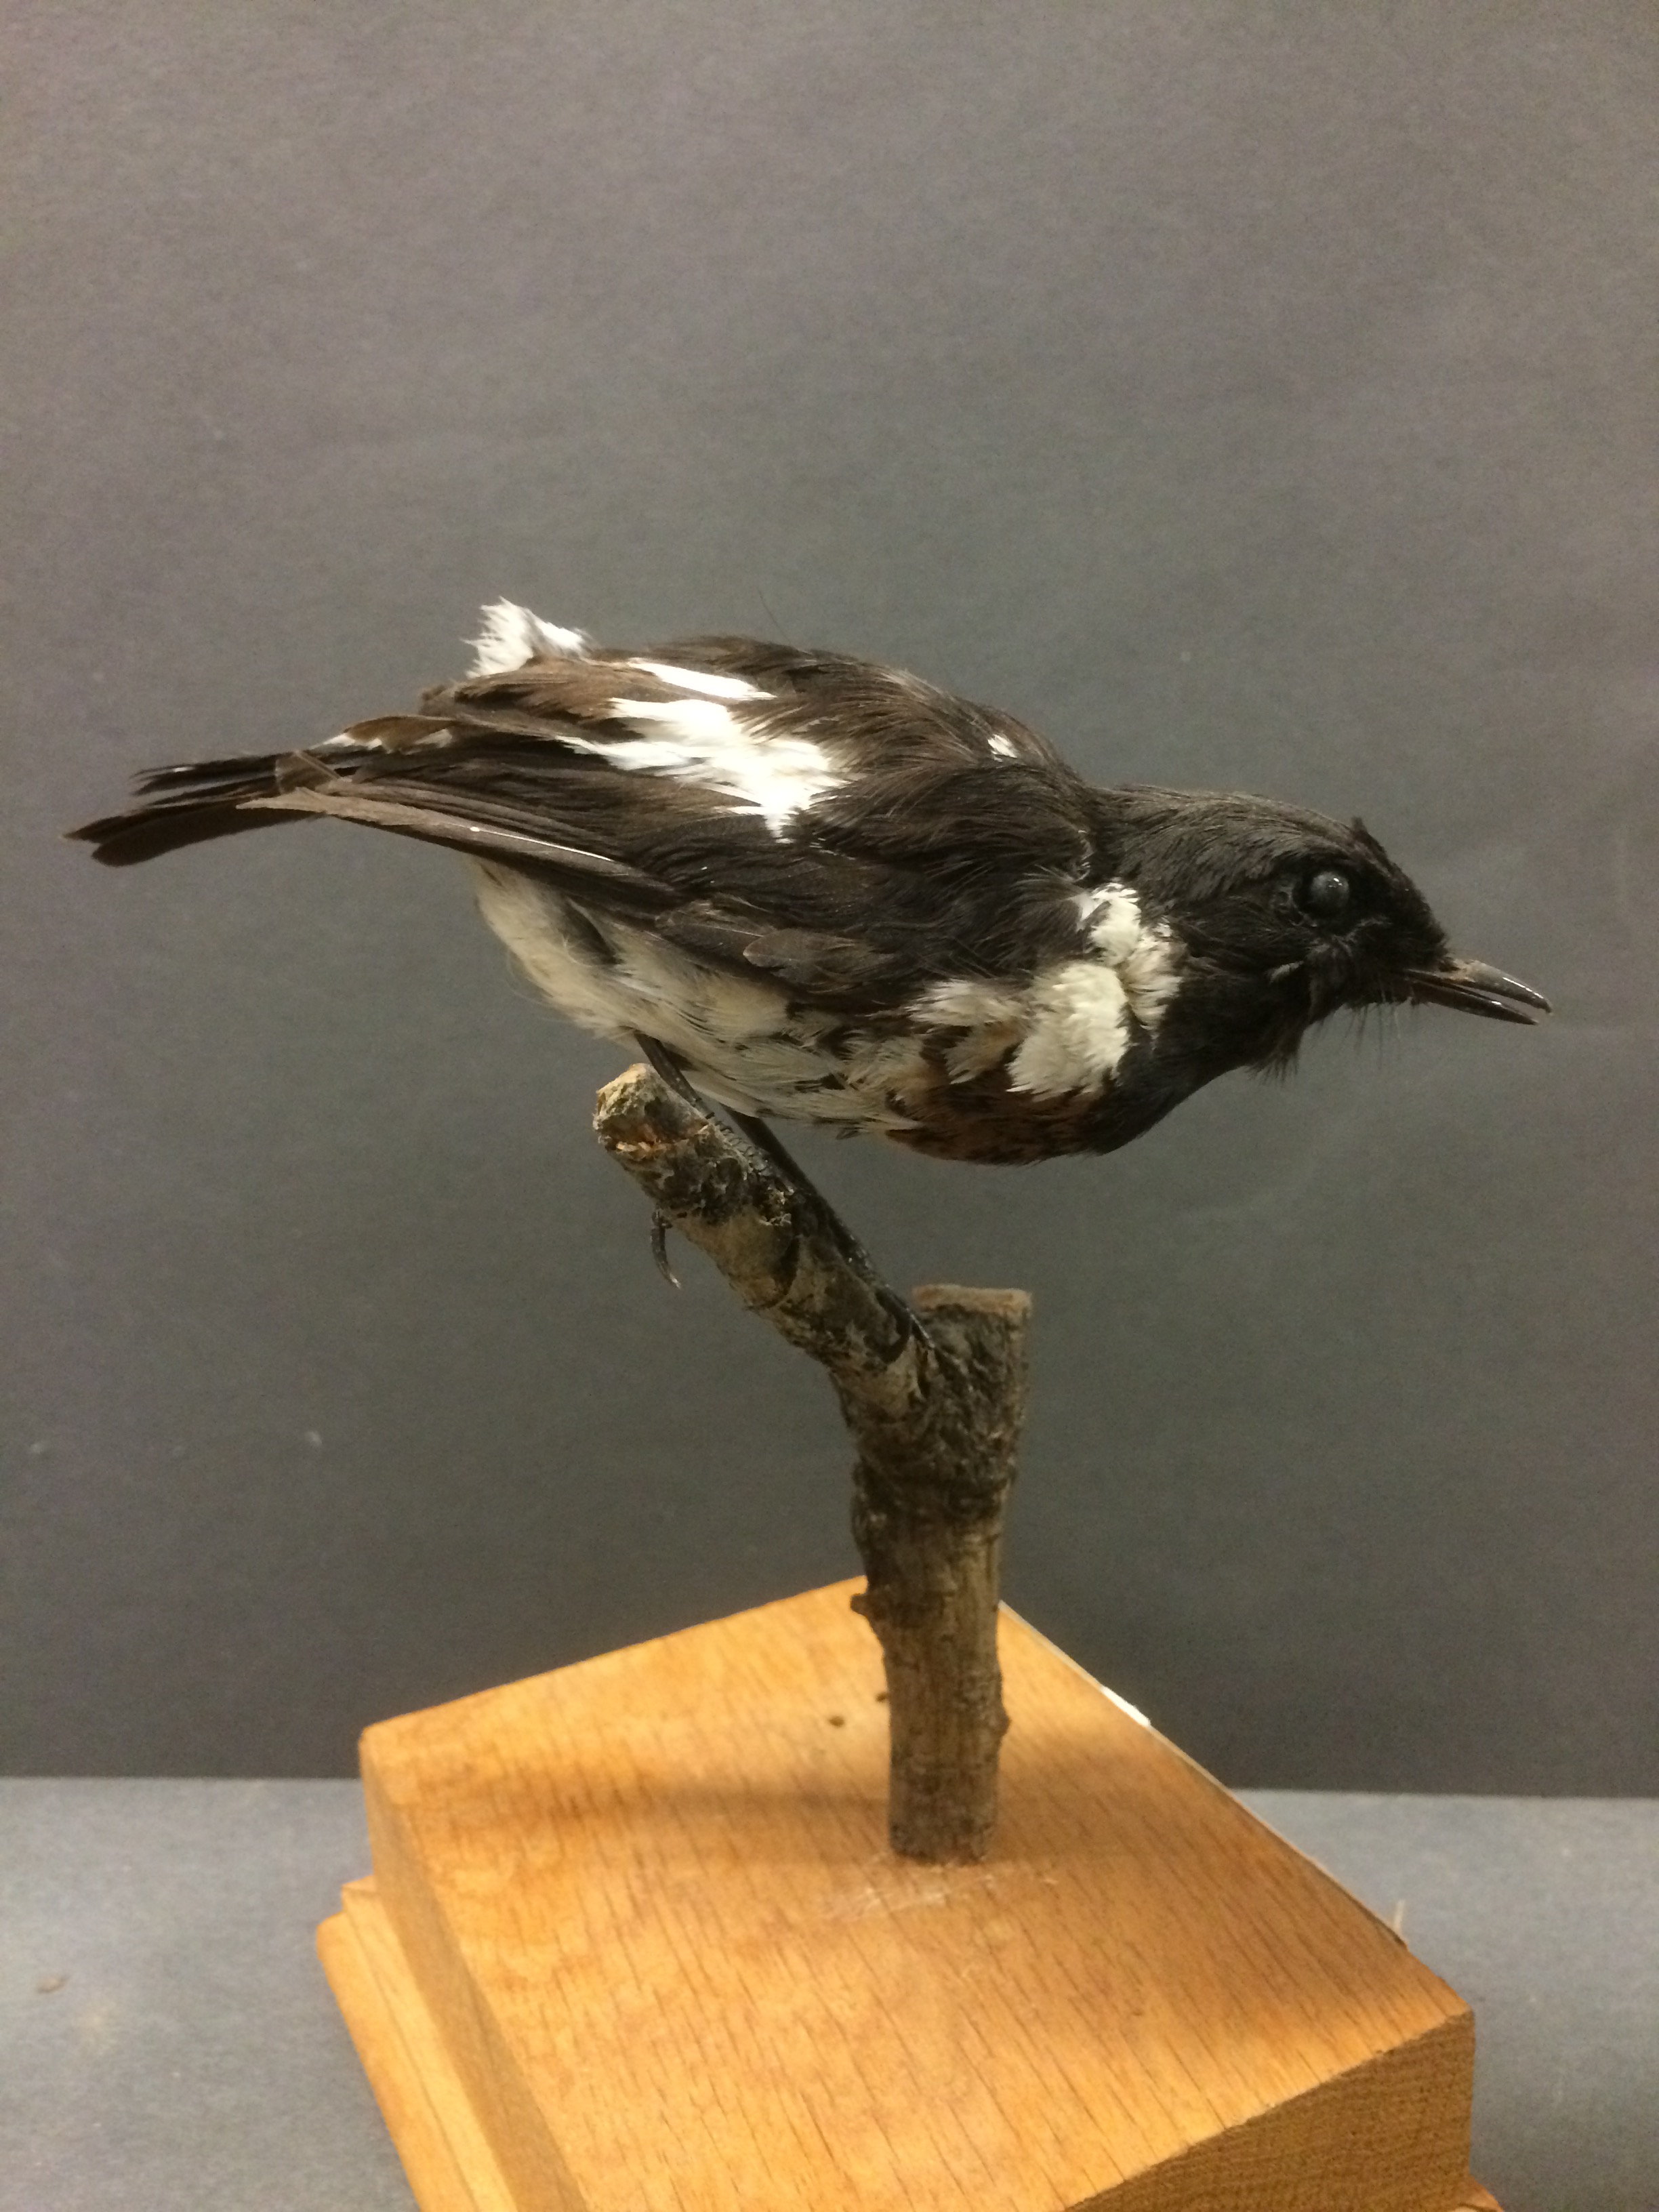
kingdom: Animalia
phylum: Chordata
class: Aves
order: Passeriformes
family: Muscicapidae
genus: Saxicola
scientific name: Saxicola torquatus
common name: African stonechat
